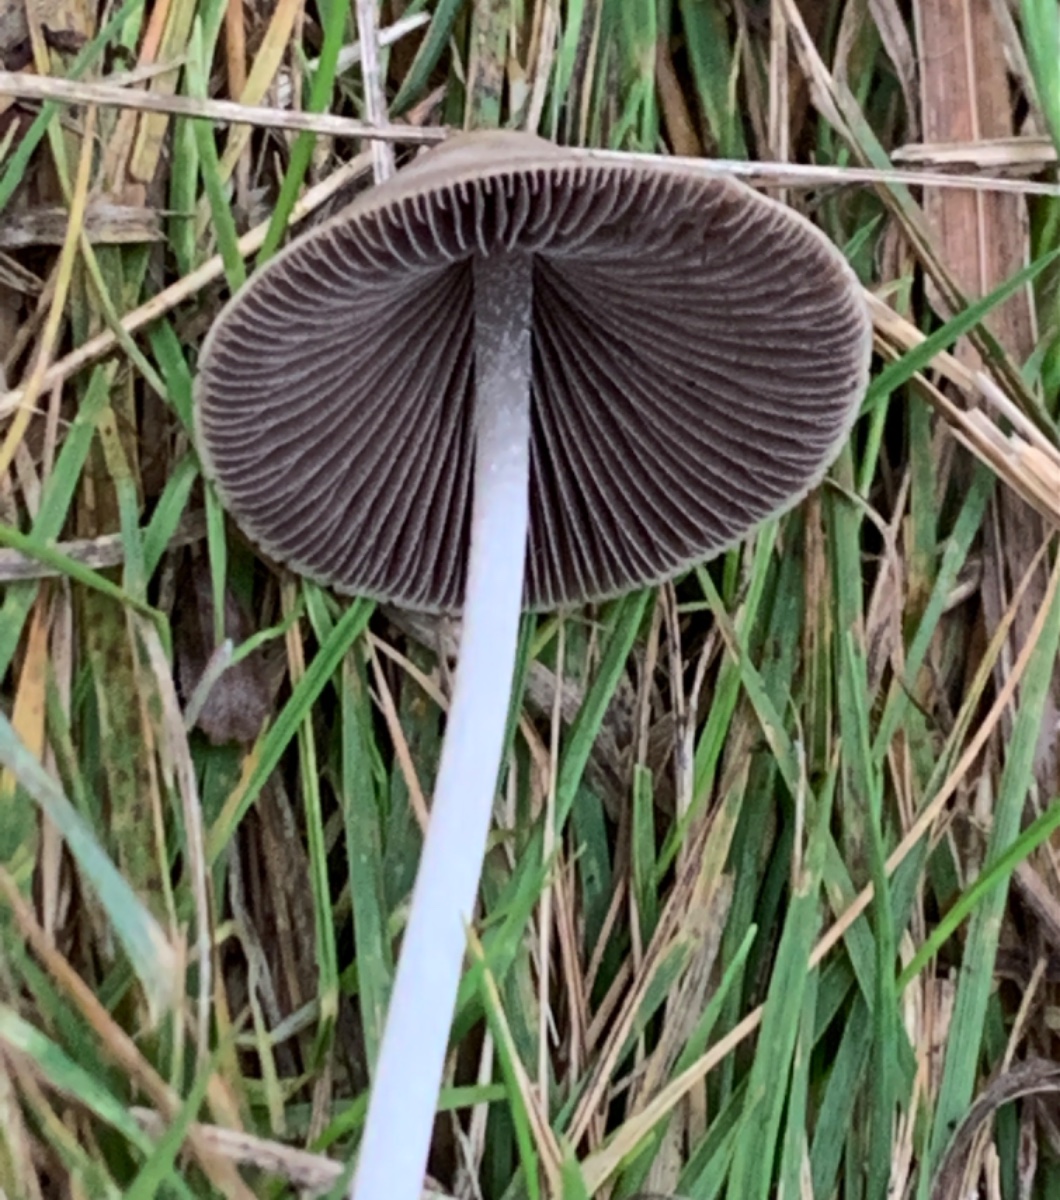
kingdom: Fungi
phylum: Basidiomycota
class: Agaricomycetes
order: Agaricales
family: Psathyrellaceae
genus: Parasola
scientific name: Parasola conopilea
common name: kegle-hjulhat
